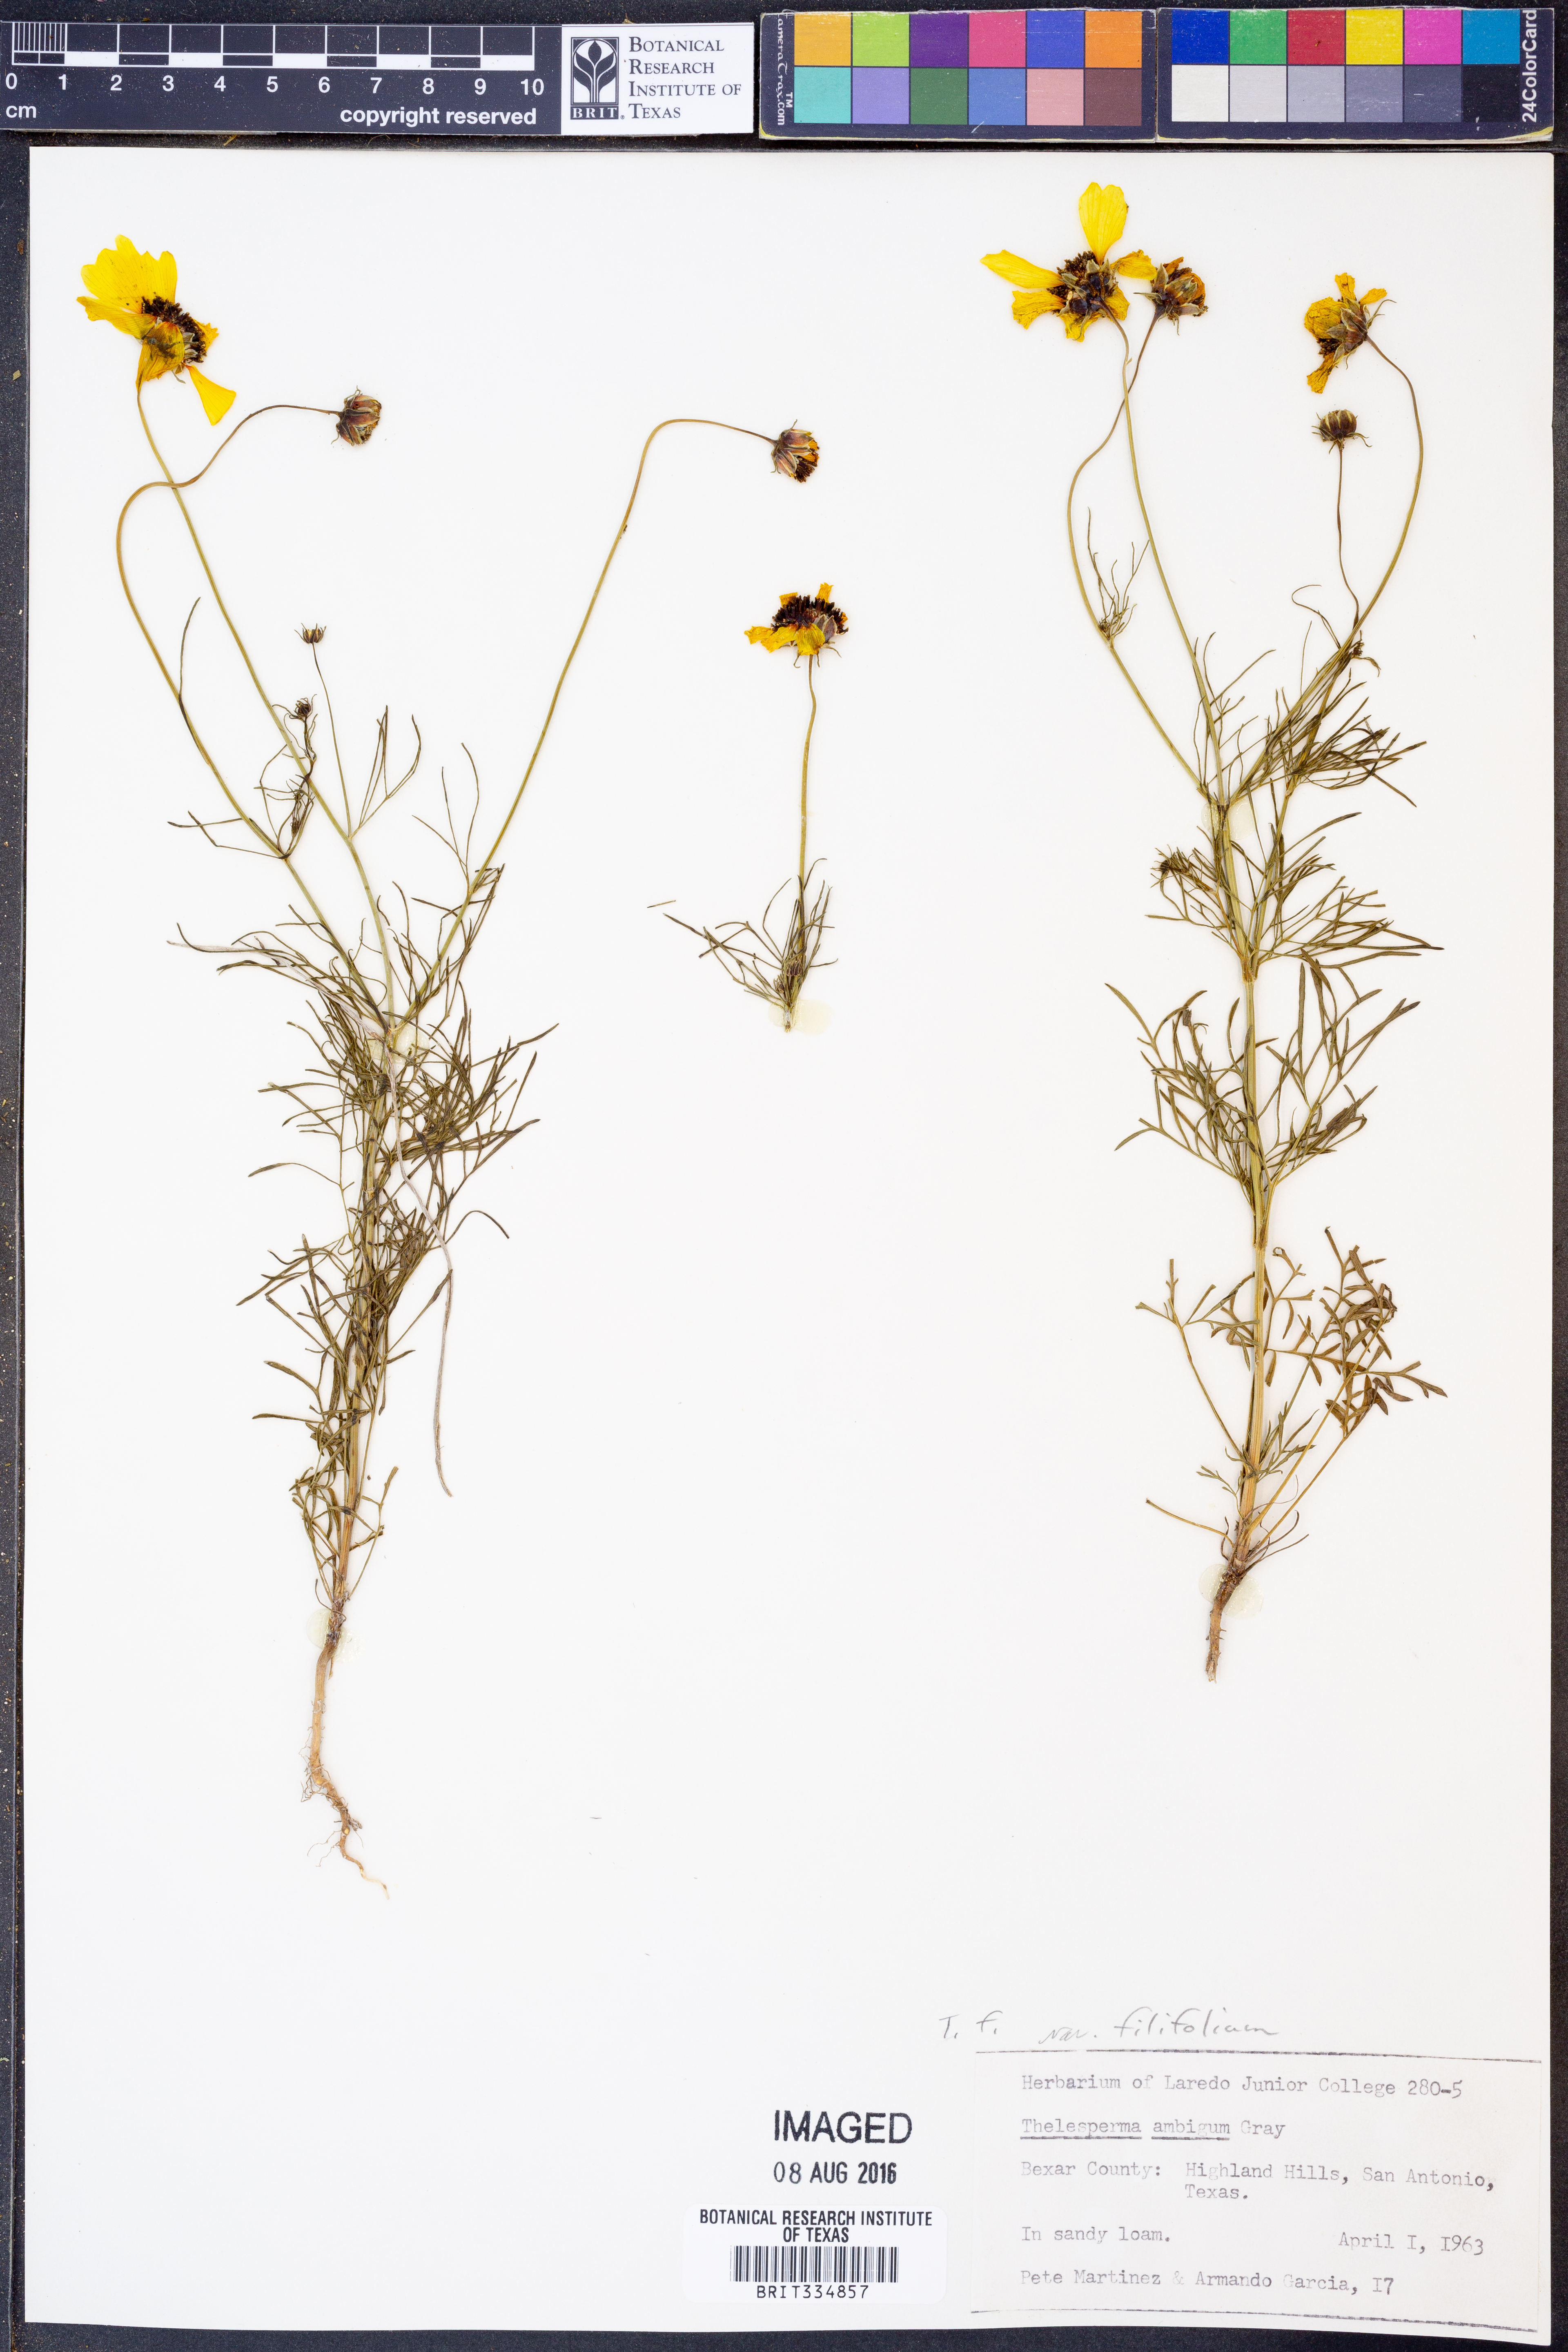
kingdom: Plantae
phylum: Tracheophyta
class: Magnoliopsida
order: Asterales
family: Asteraceae
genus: Thelesperma
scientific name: Thelesperma filifolium
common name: Stiff greenthread
